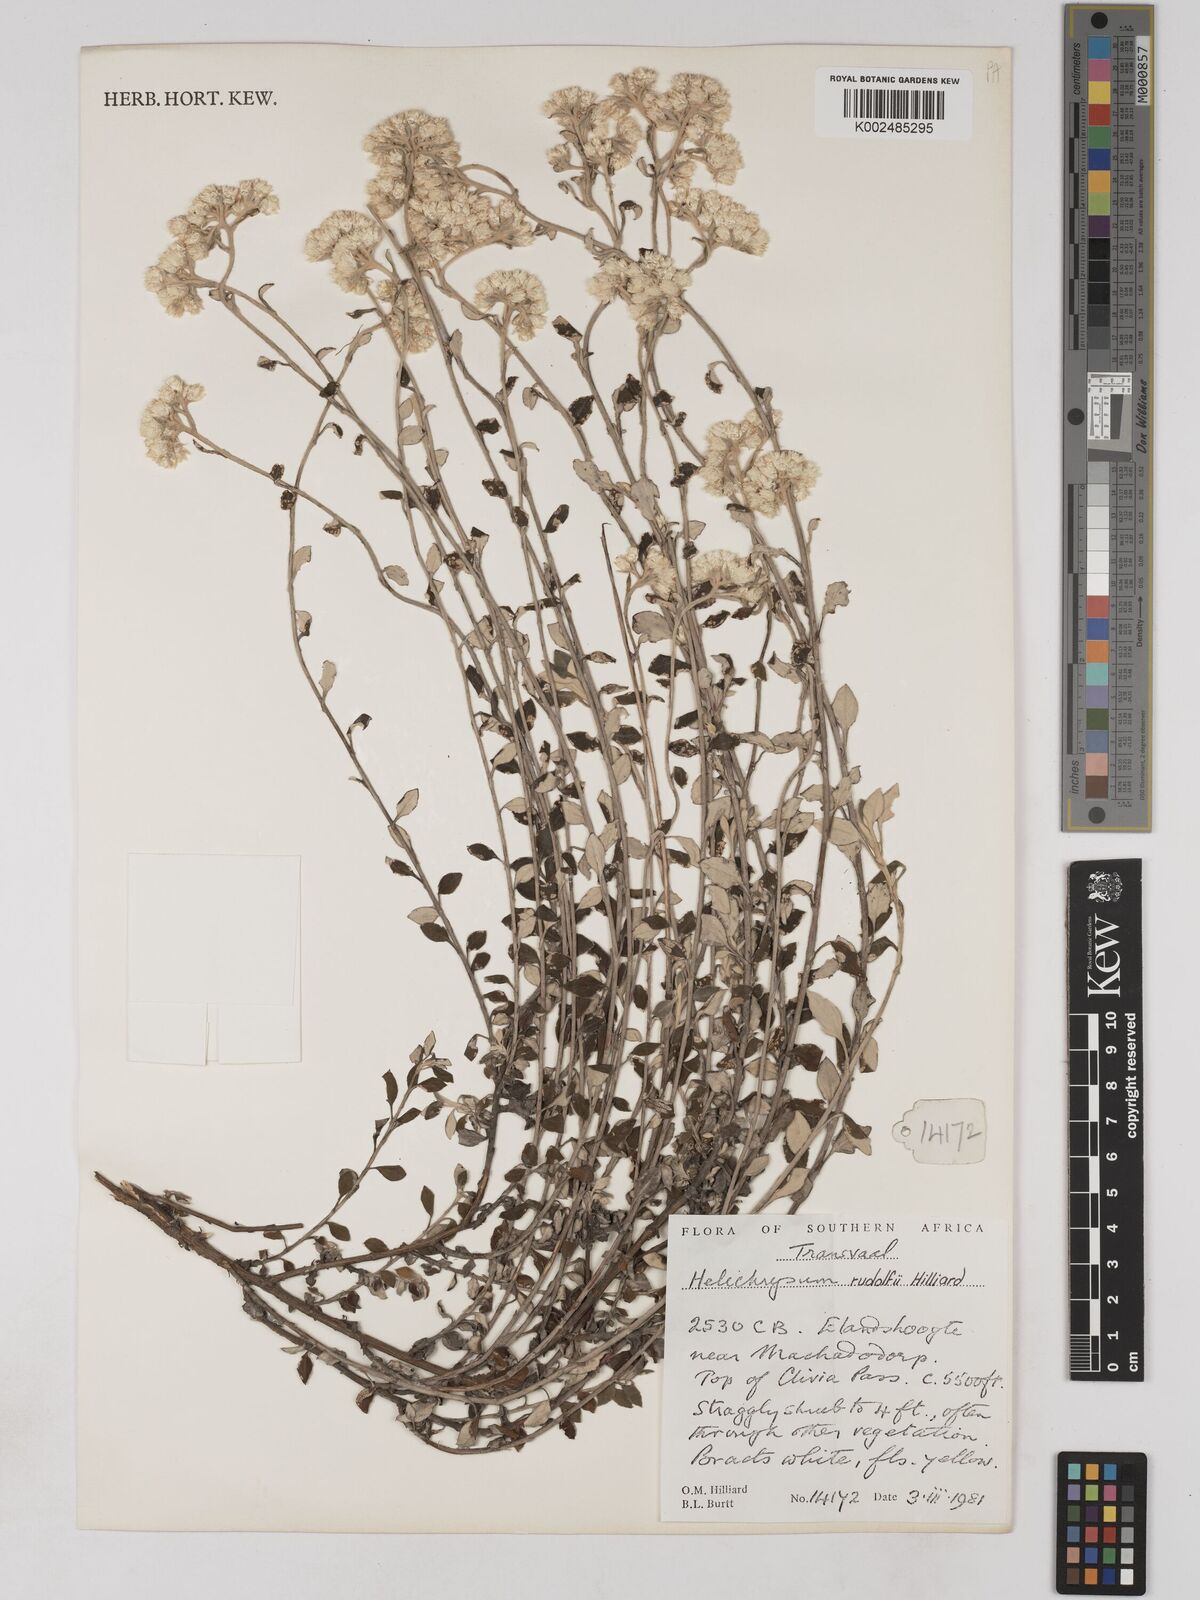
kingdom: Plantae
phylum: Tracheophyta
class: Magnoliopsida
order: Asterales
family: Asteraceae
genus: Helichrysum
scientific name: Helichrysum rudolfii
